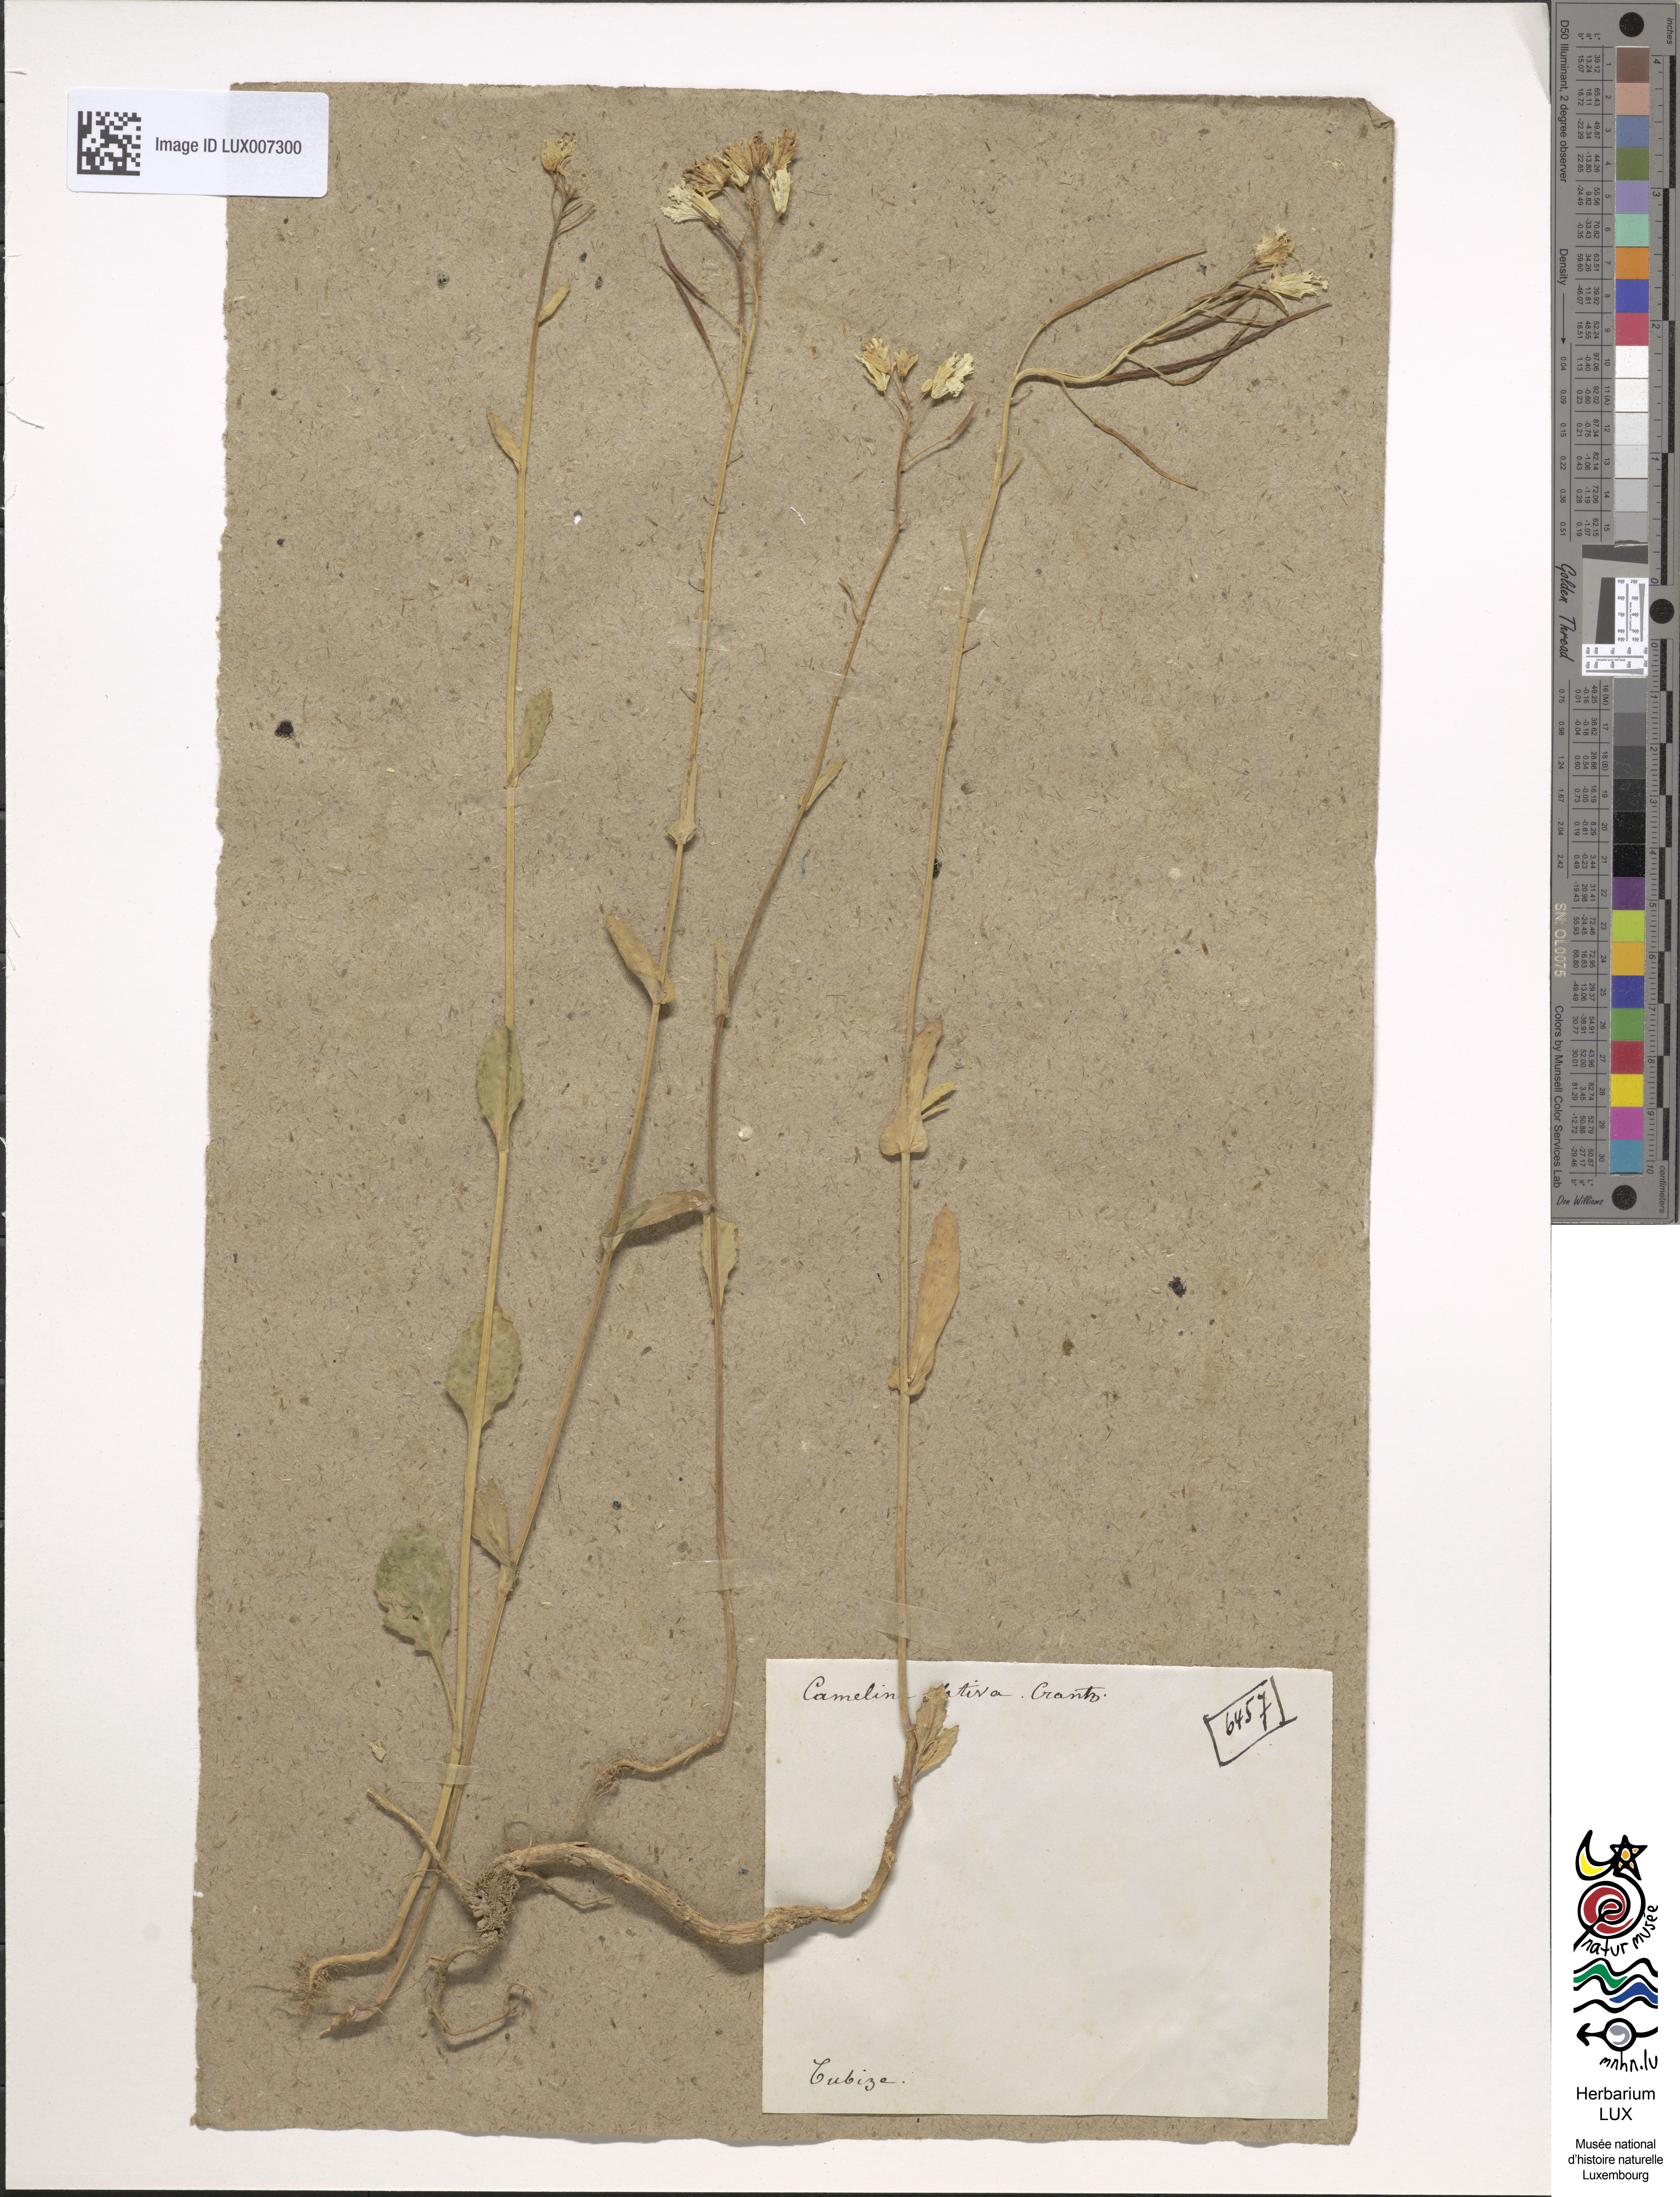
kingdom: Plantae
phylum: Tracheophyta
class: Magnoliopsida
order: Brassicales
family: Brassicaceae
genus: Camelina
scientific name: Camelina sativa
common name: Gold-of-pleasure
